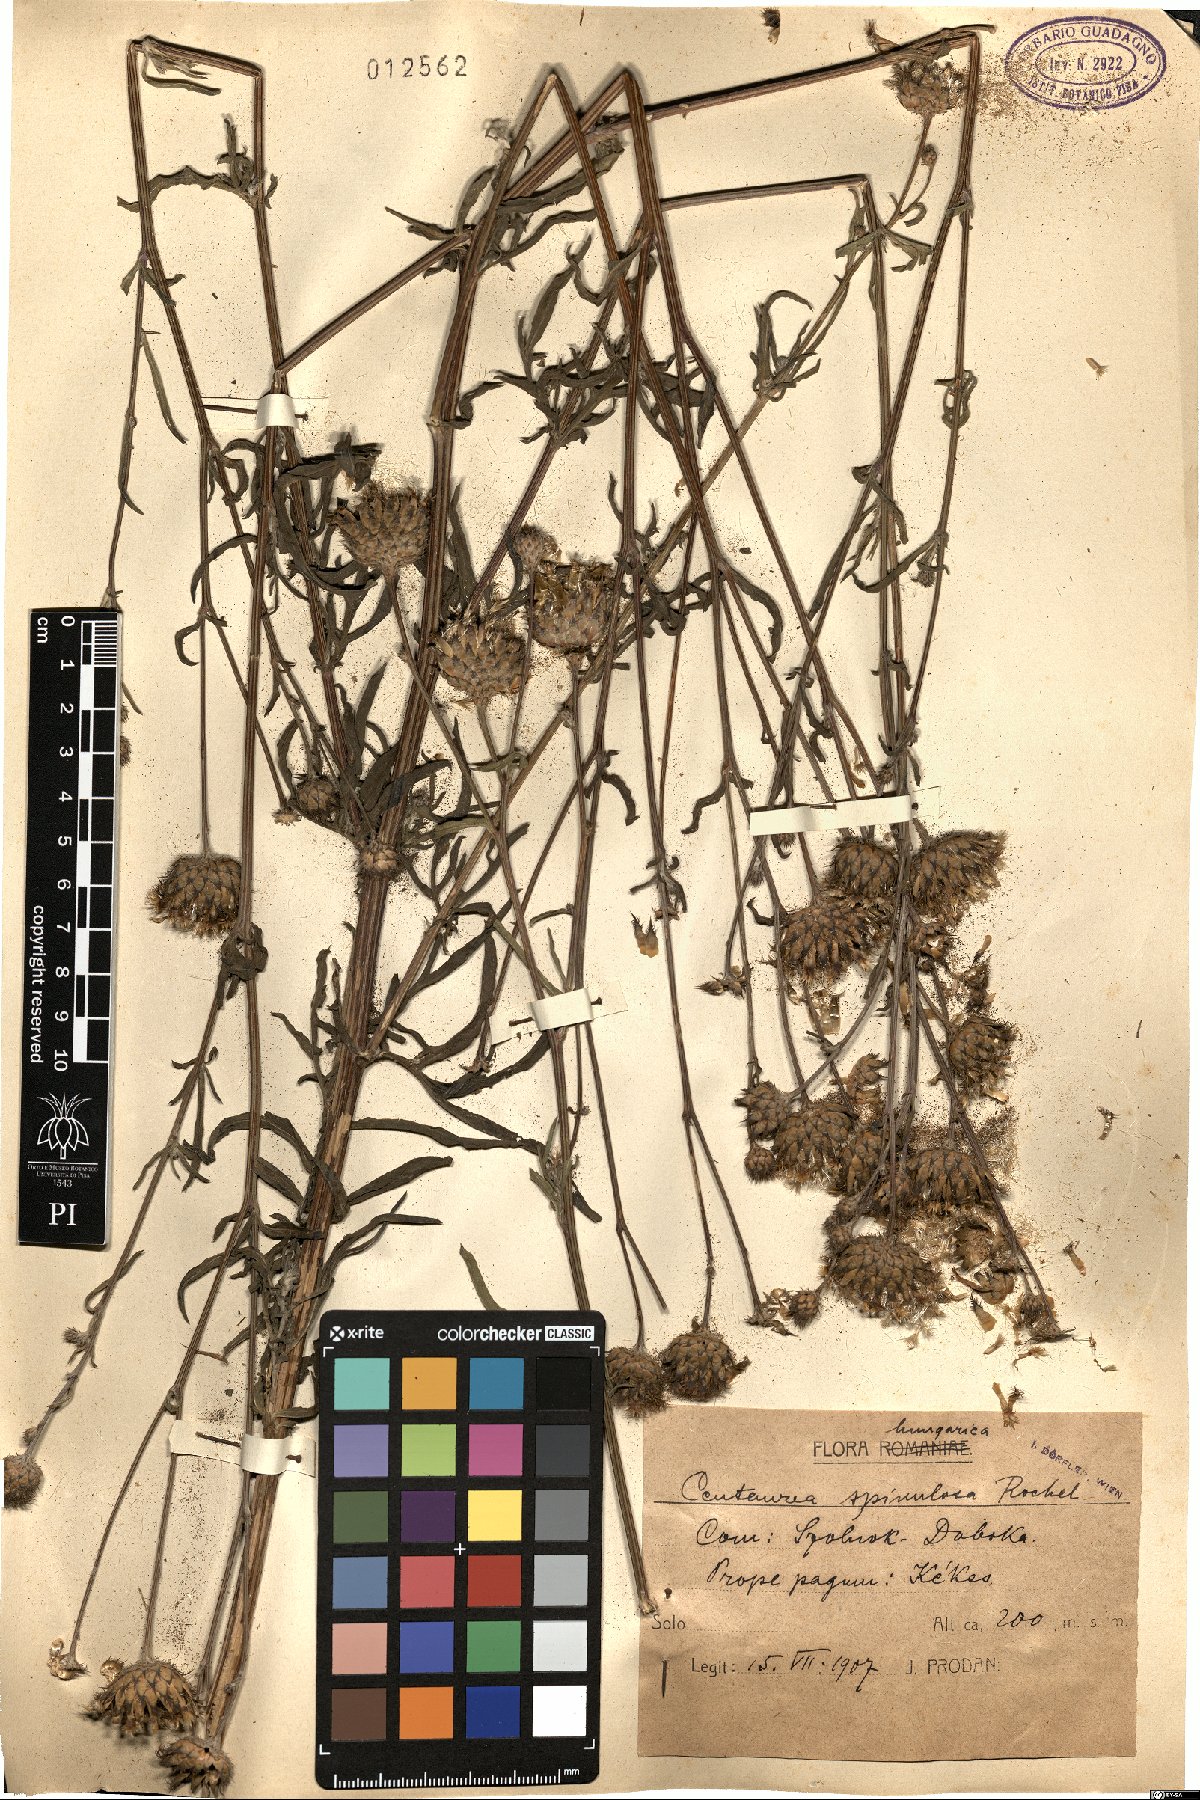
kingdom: Plantae
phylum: Tracheophyta
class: Magnoliopsida
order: Asterales
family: Asteraceae
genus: Centaurea
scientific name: Centaurea apiculata
